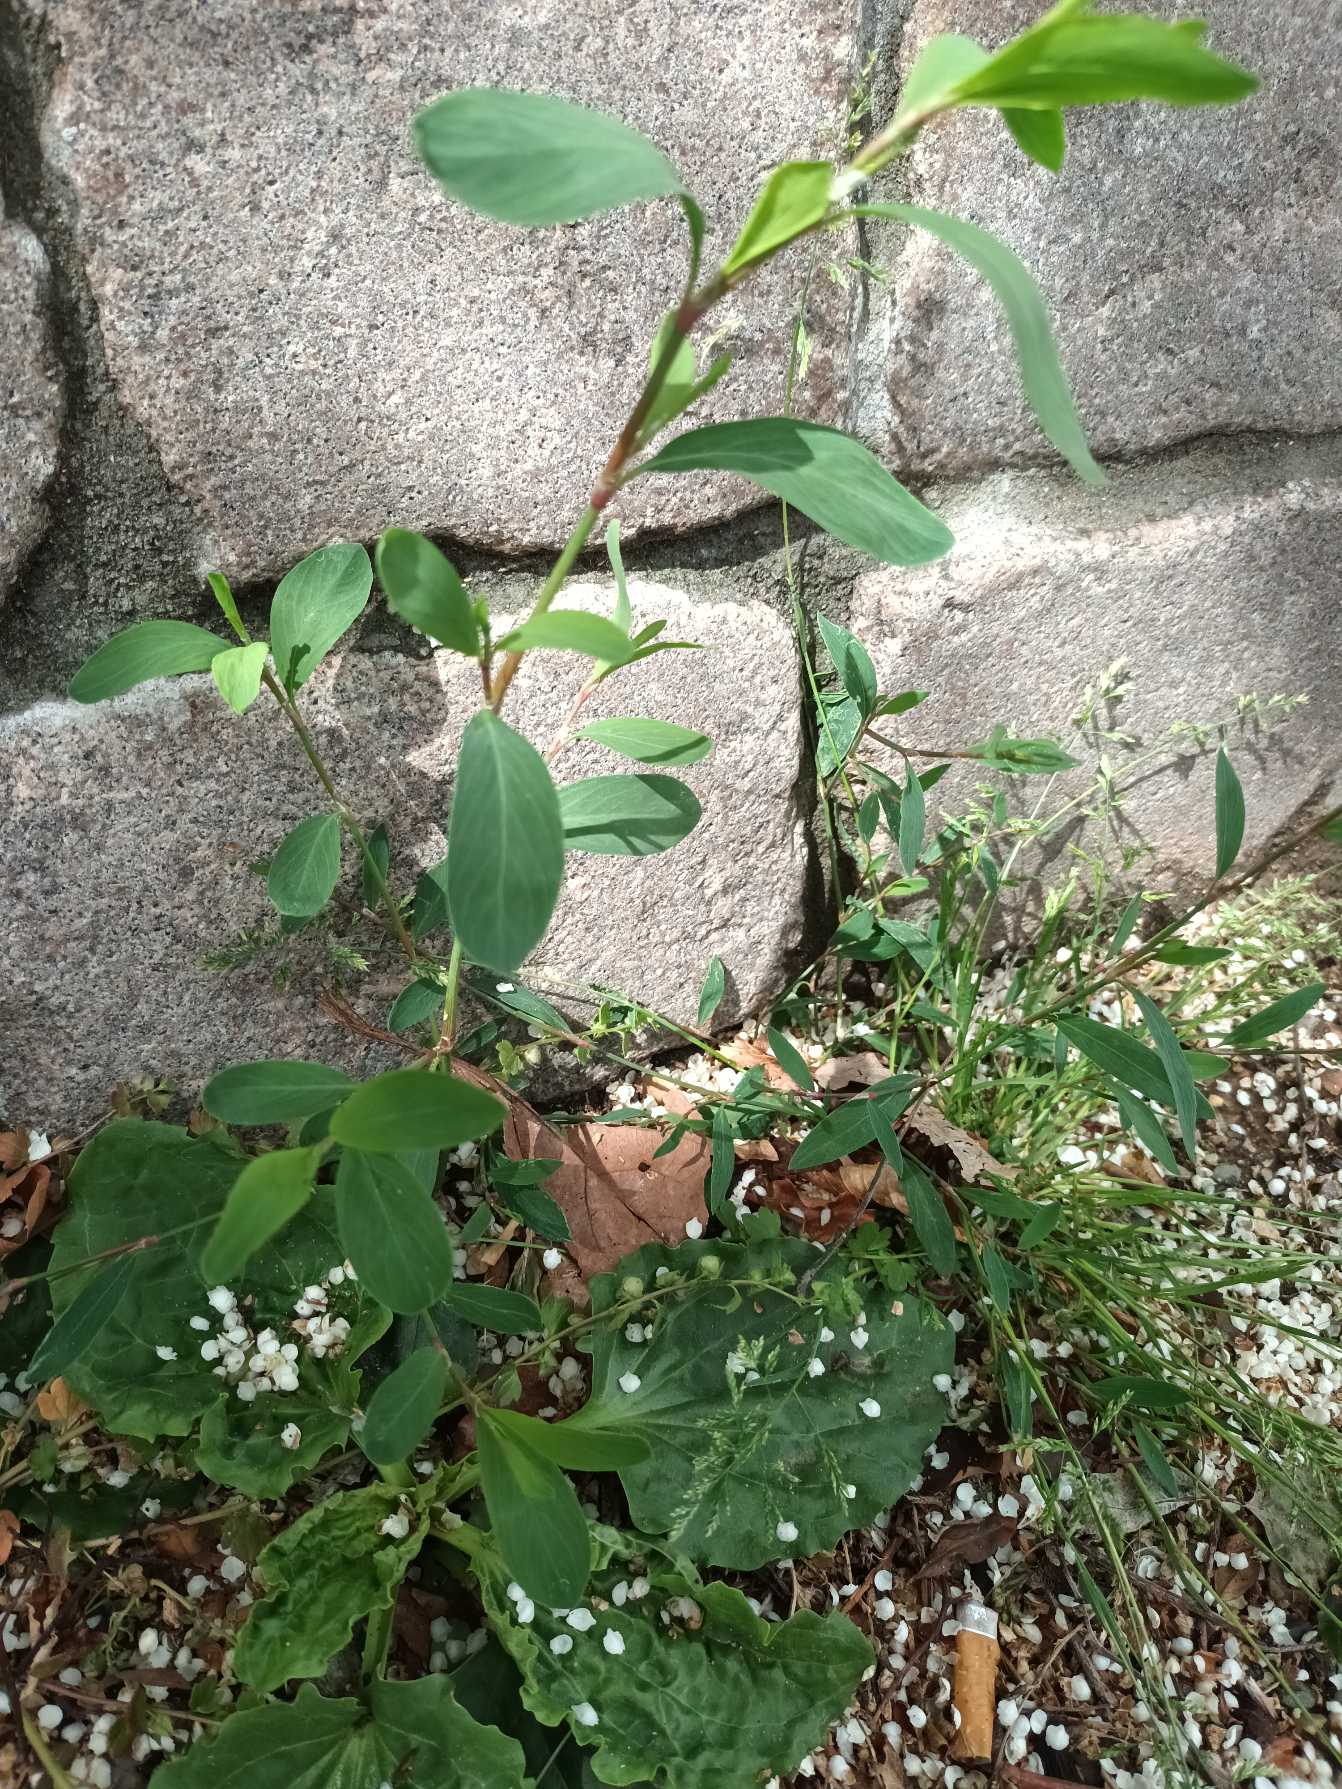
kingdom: Plantae
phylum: Tracheophyta
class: Magnoliopsida
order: Caryophyllales
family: Polygonaceae
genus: Polygonum
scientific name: Polygonum aviculare
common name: Vej-pileurt (underart)
